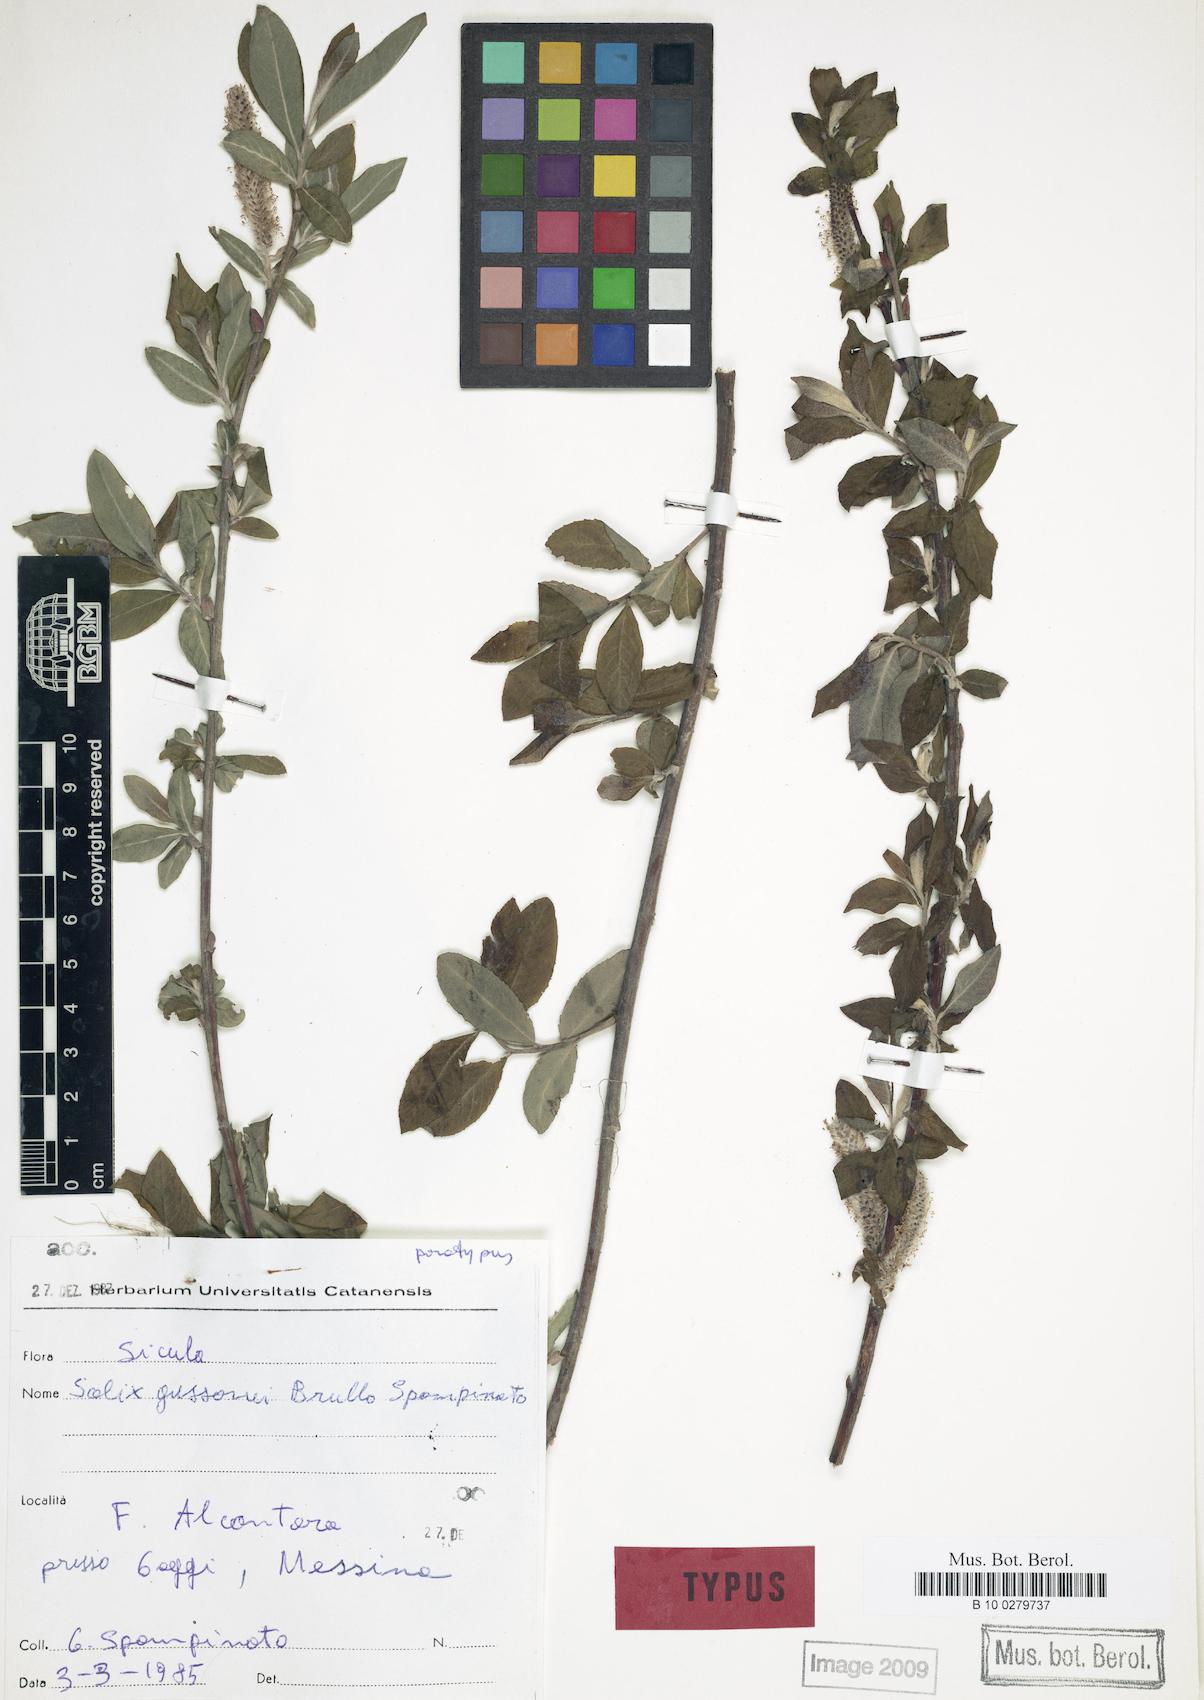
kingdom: Plantae
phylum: Tracheophyta
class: Magnoliopsida
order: Malpighiales
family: Salicaceae
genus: Salix
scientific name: Salix gussonei
